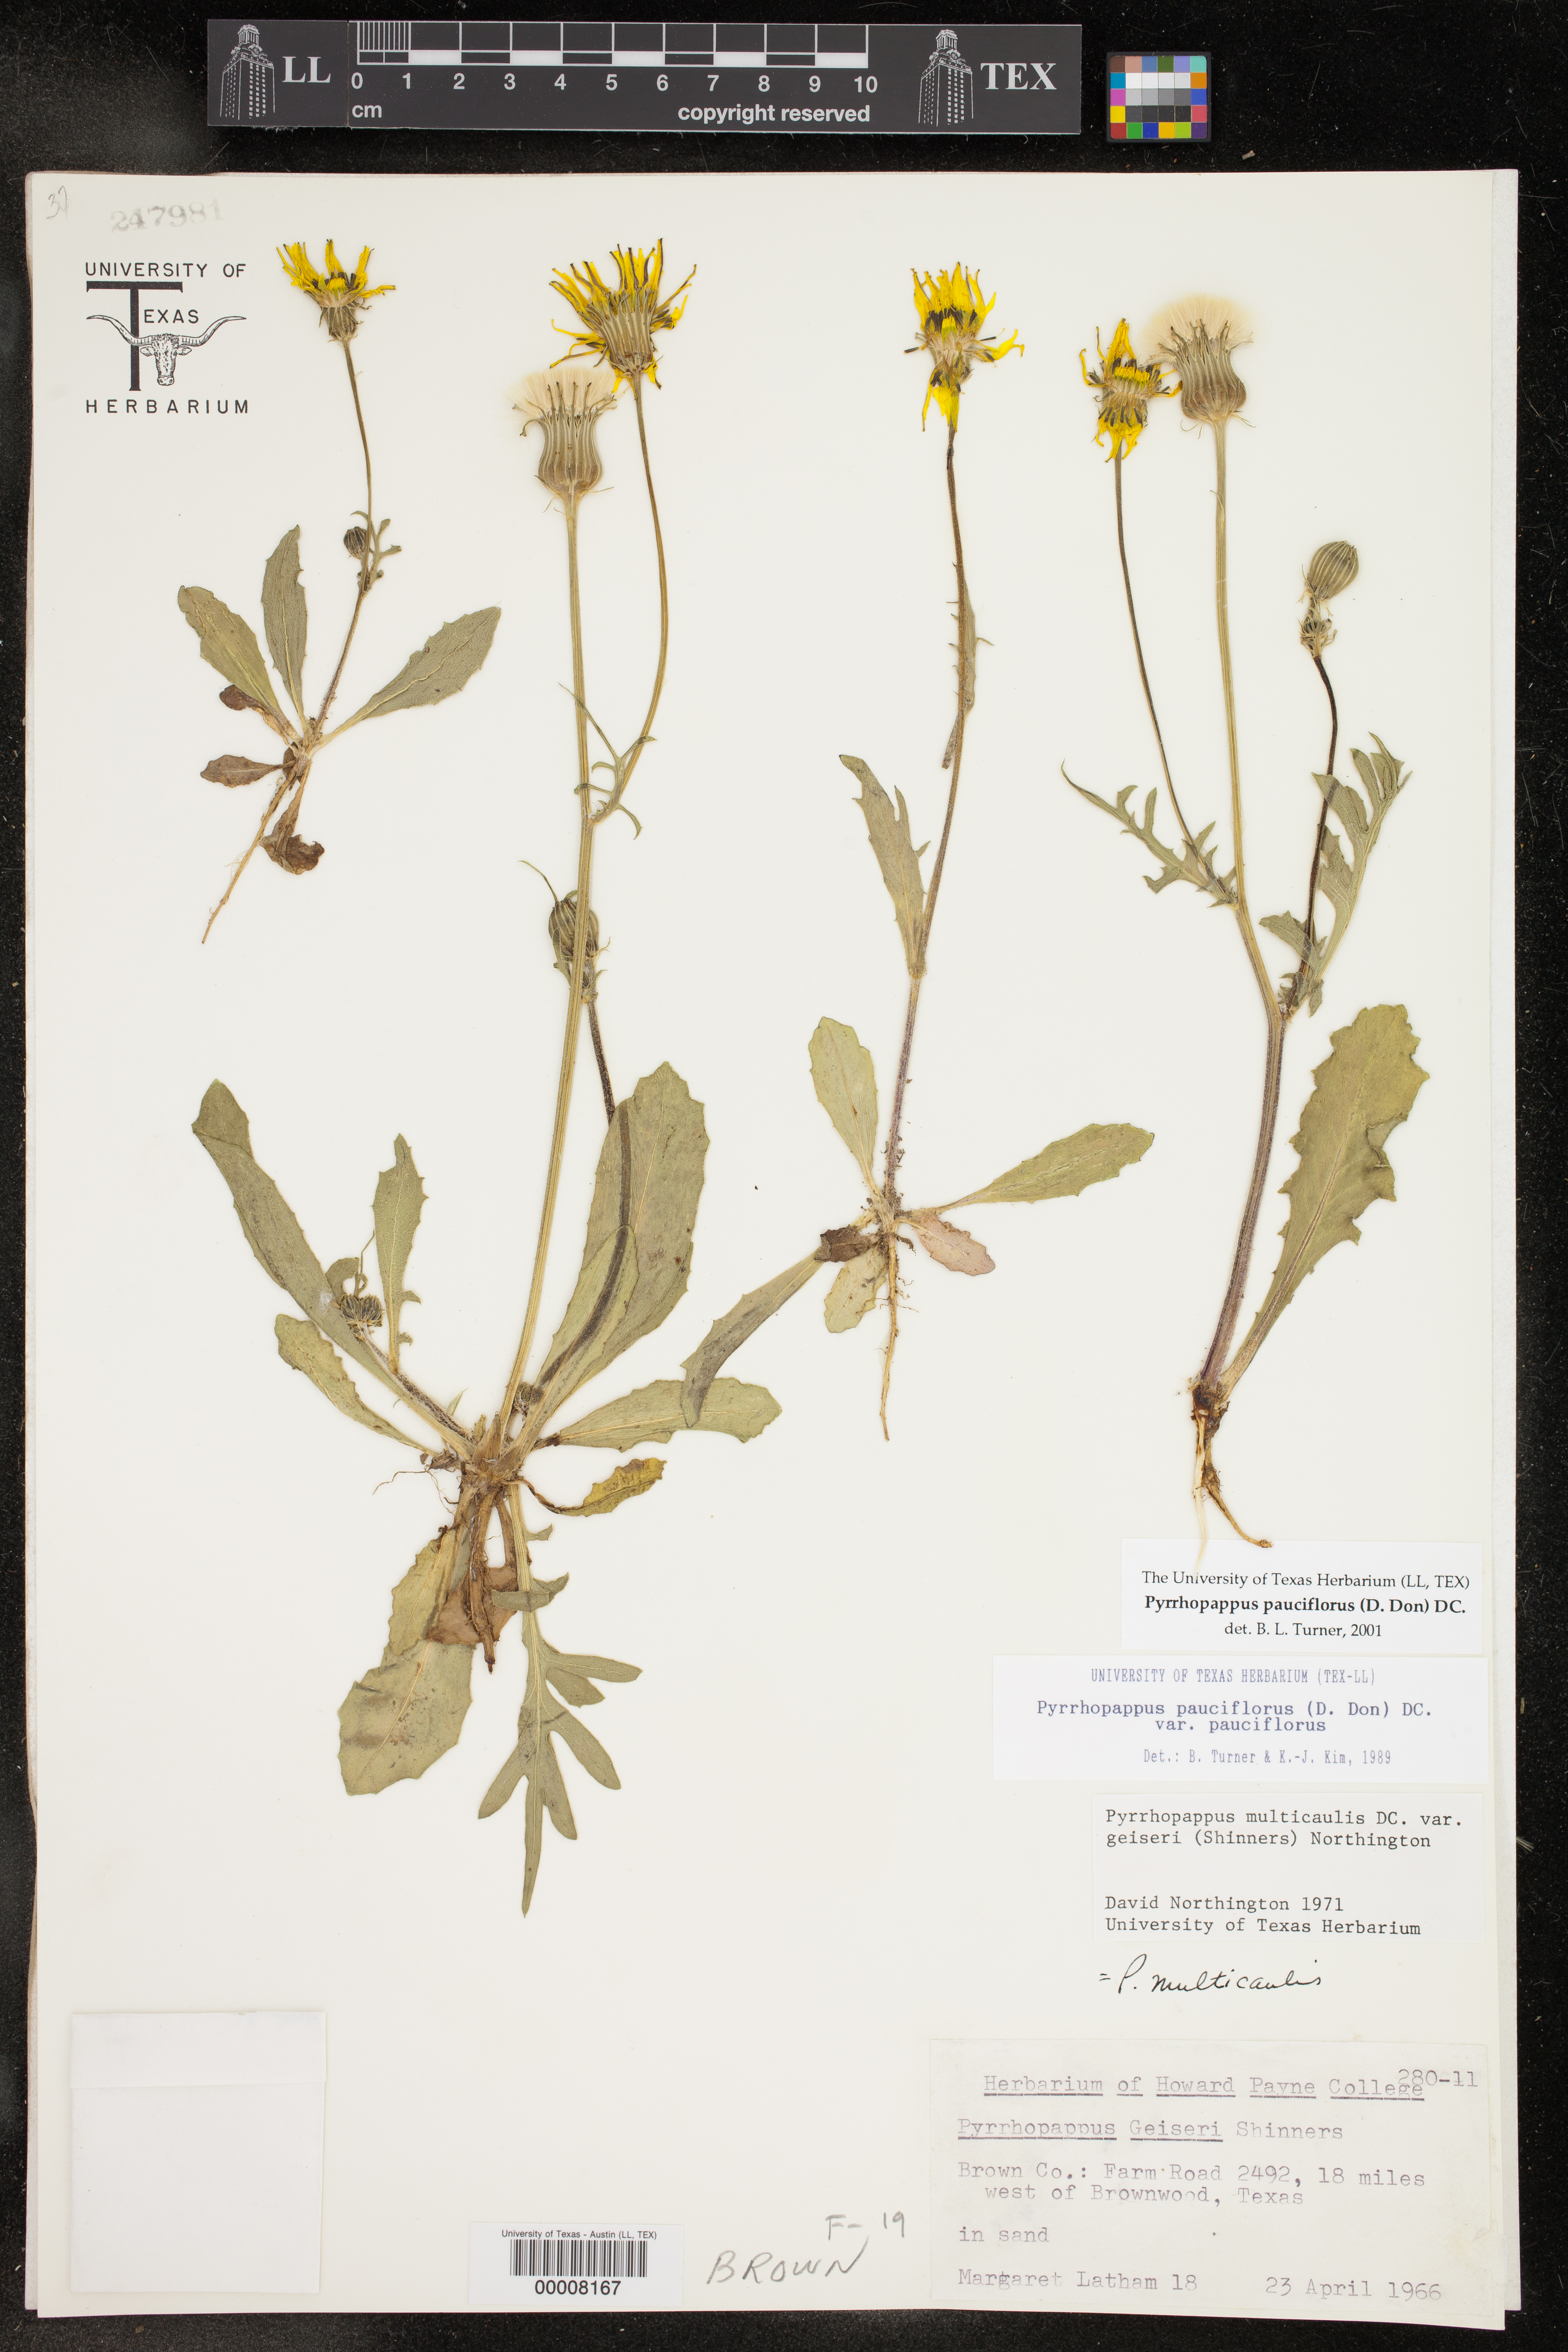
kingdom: Plantae
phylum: Tracheophyta
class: Magnoliopsida
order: Asterales
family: Asteraceae
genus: Pyrrhopappus
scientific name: Pyrrhopappus pauciflorus
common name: Texas false dandelion
